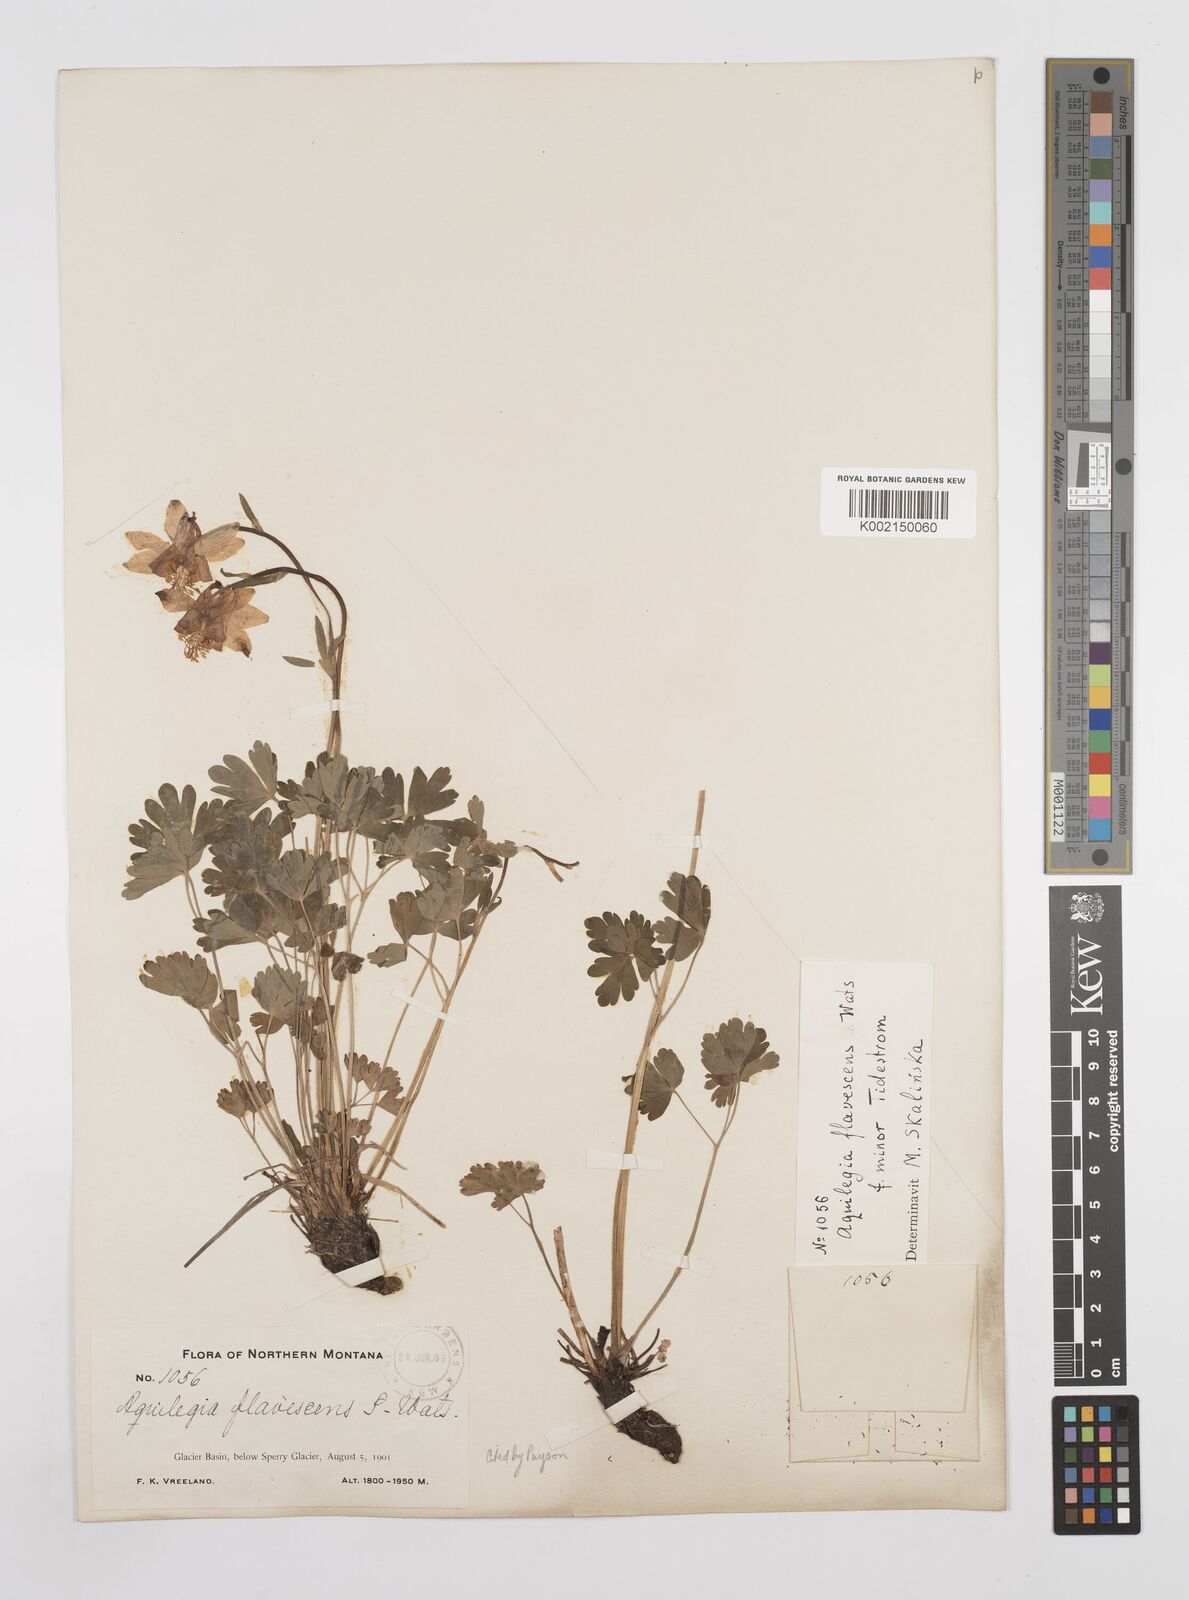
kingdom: Plantae
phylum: Tracheophyta
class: Magnoliopsida
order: Ranunculales
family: Ranunculaceae
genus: Aquilegia
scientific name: Aquilegia flavescens
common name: Yellow columbine
